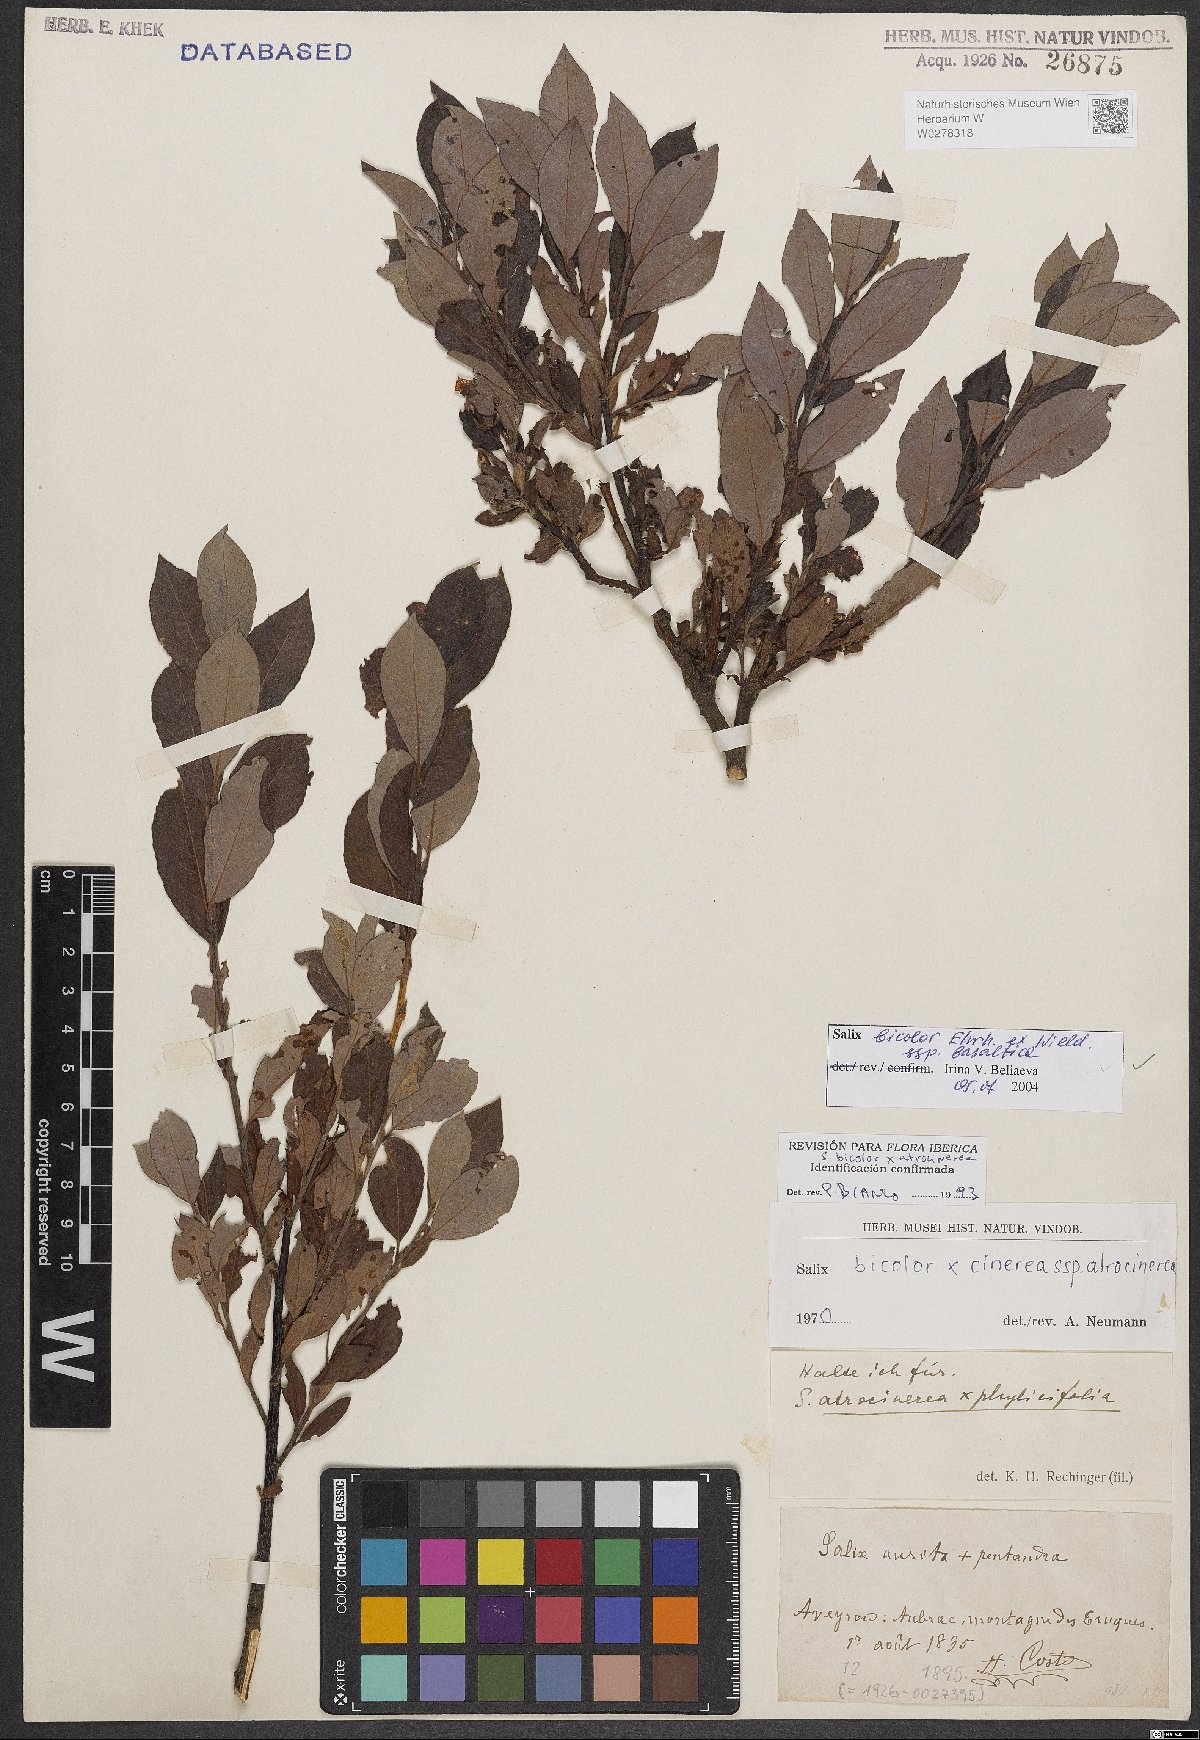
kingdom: Plantae
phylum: Tracheophyta
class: Magnoliopsida
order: Malpighiales
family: Salicaceae
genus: Salix
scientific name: Salix basaltica
